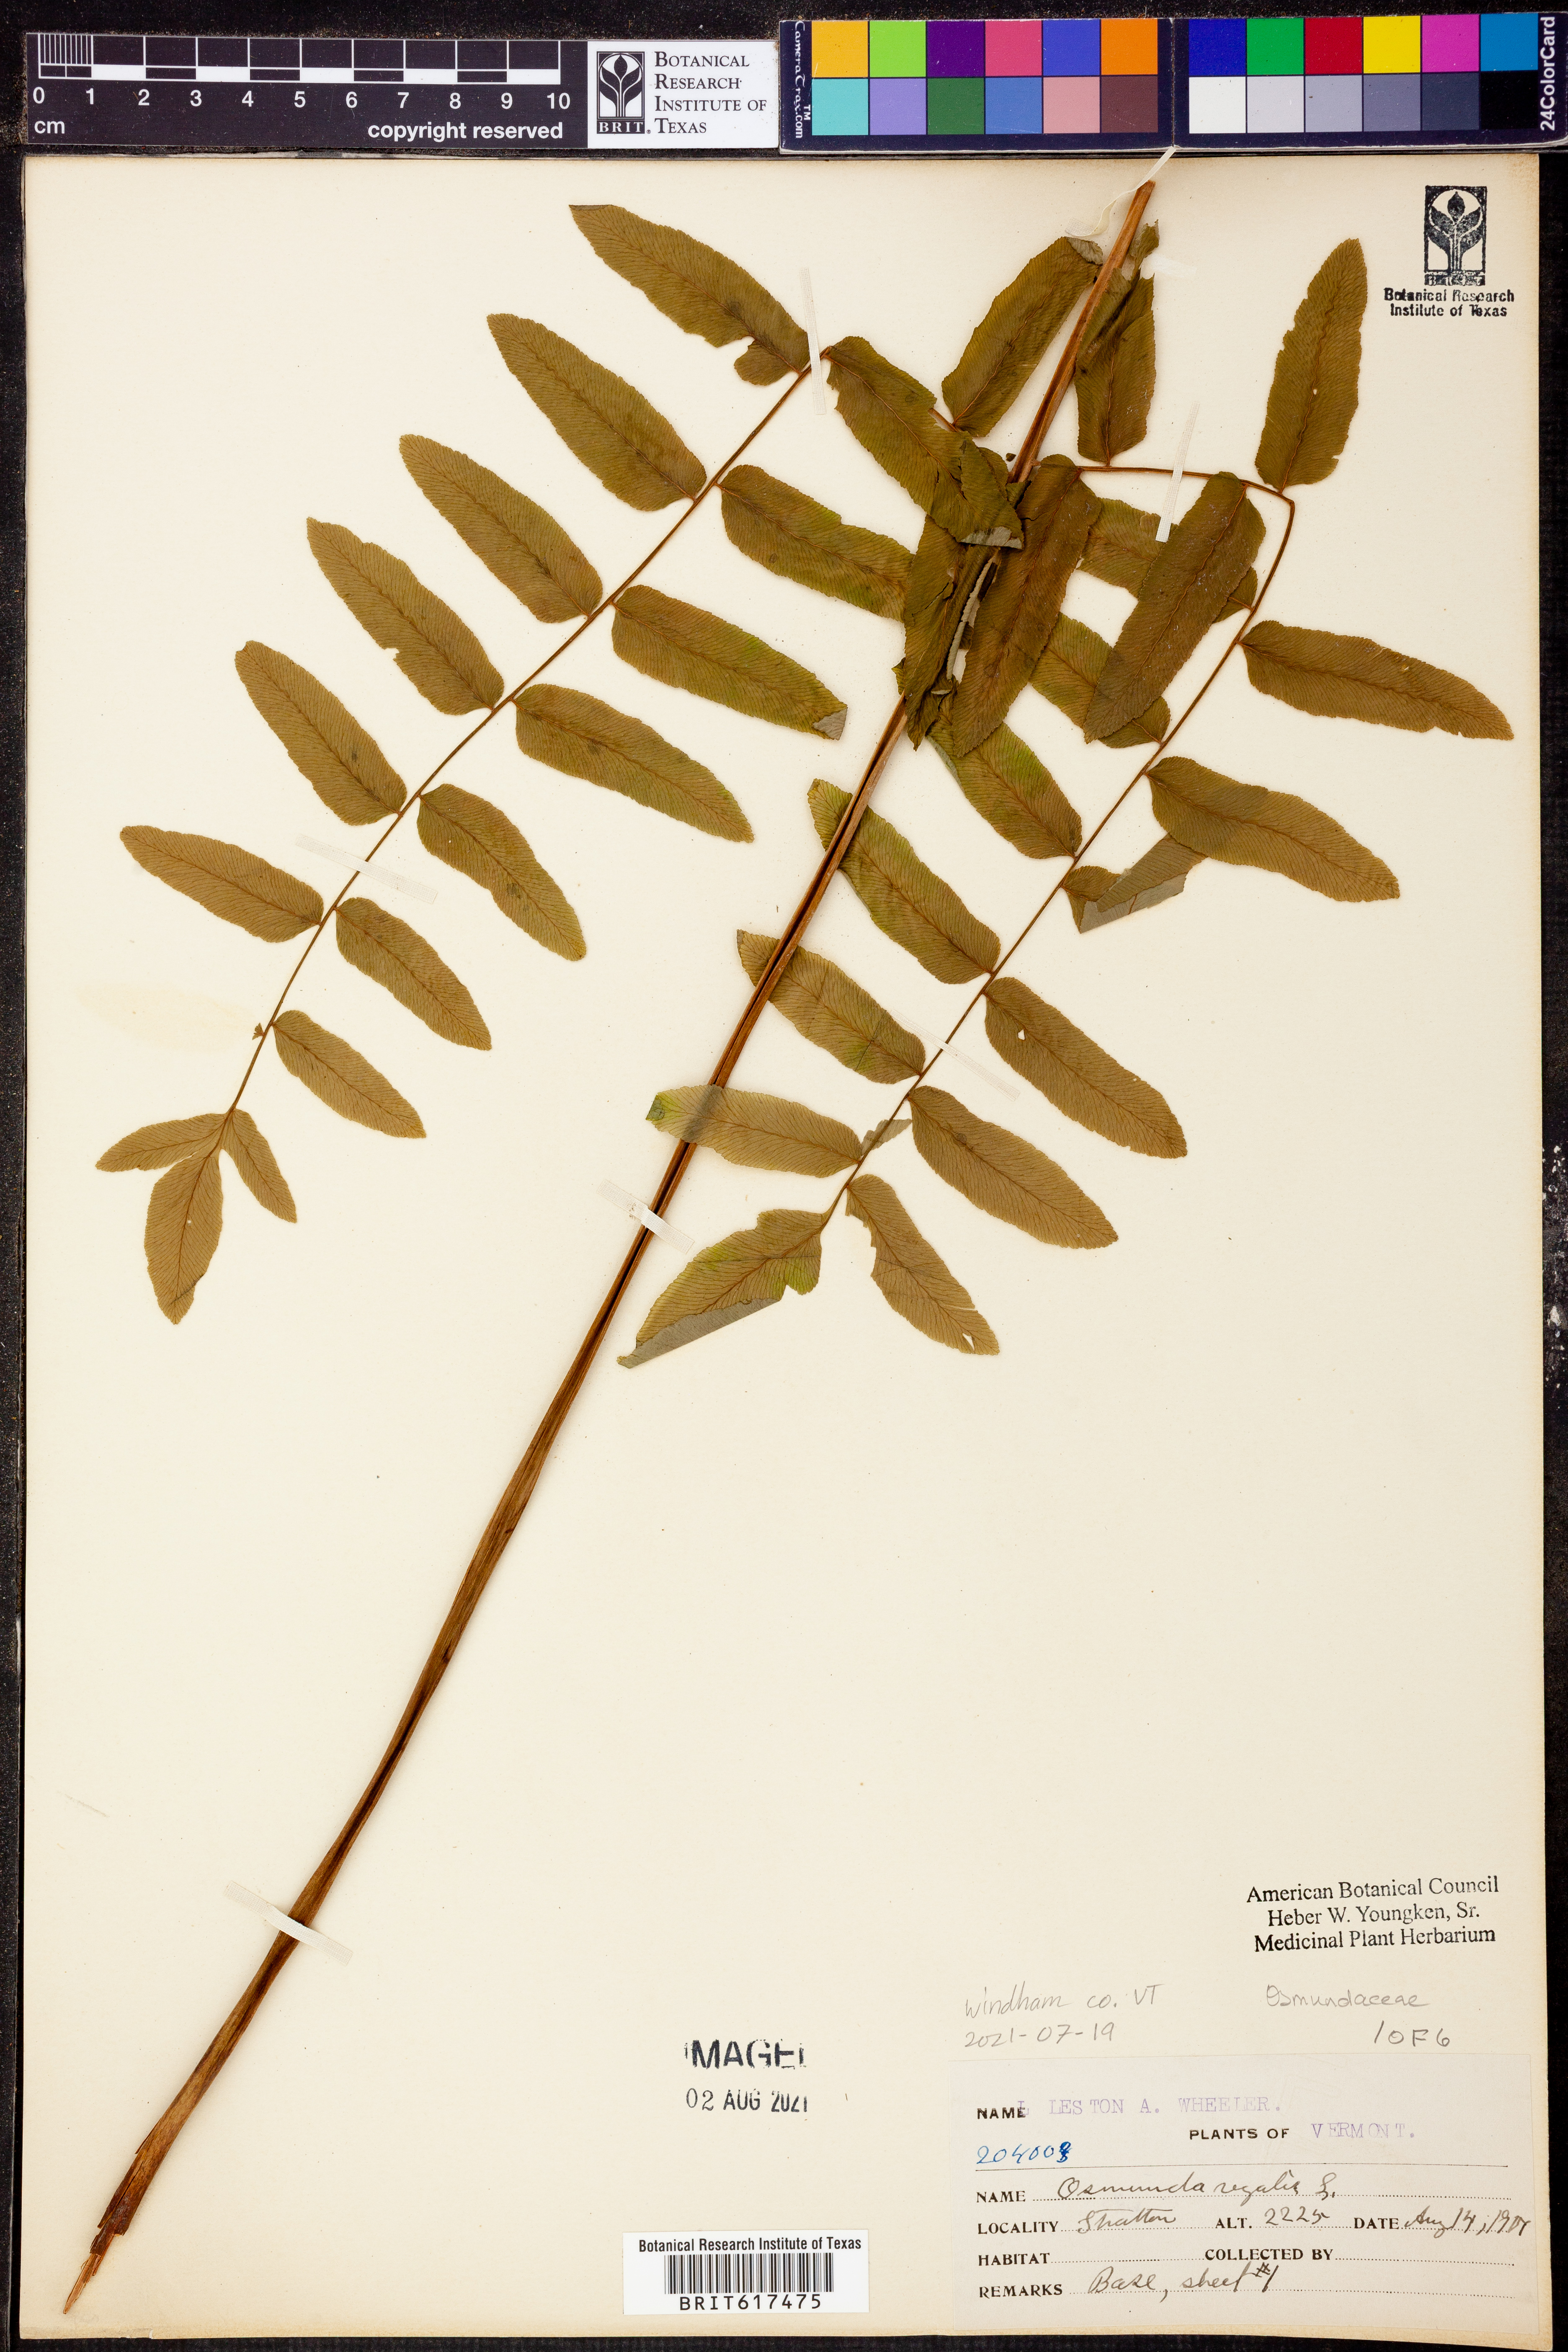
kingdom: Plantae
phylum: Tracheophyta
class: Polypodiopsida
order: Osmundales
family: Osmundaceae
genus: Osmunda
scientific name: Osmunda regalis
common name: Royal fern
